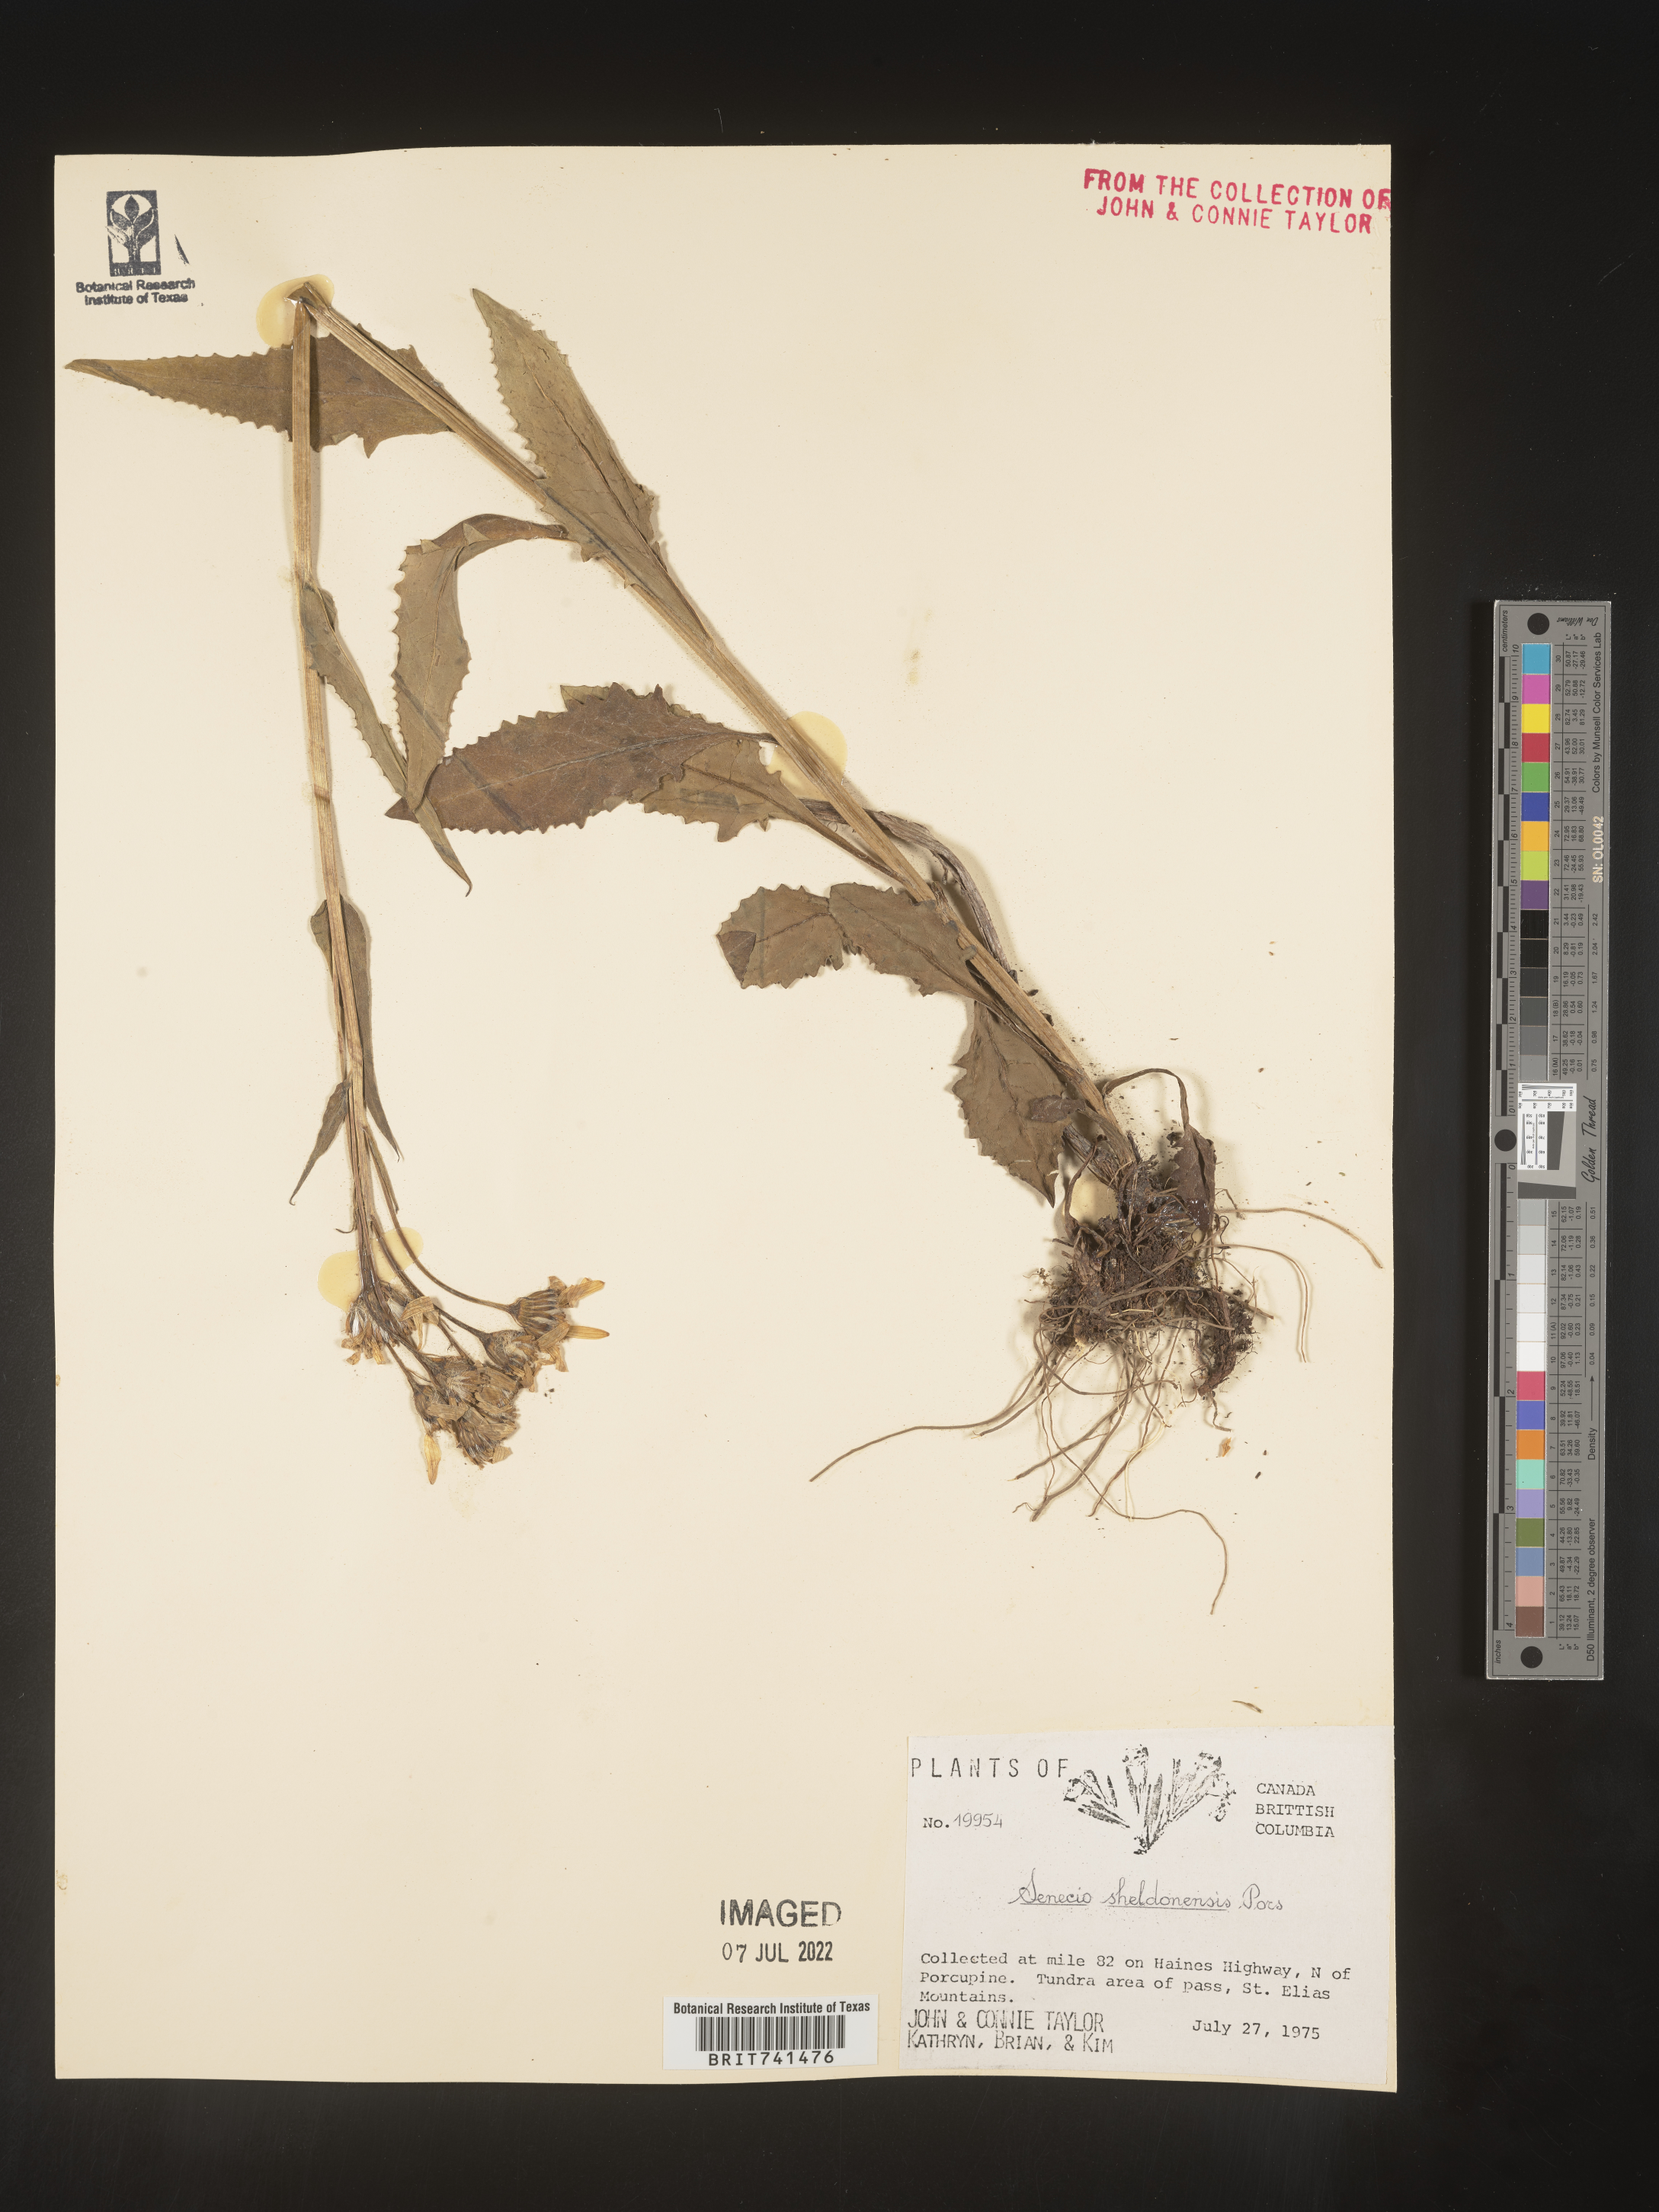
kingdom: Plantae
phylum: Tracheophyta
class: Magnoliopsida
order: Asterales
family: Asteraceae
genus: Senecio
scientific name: Senecio
